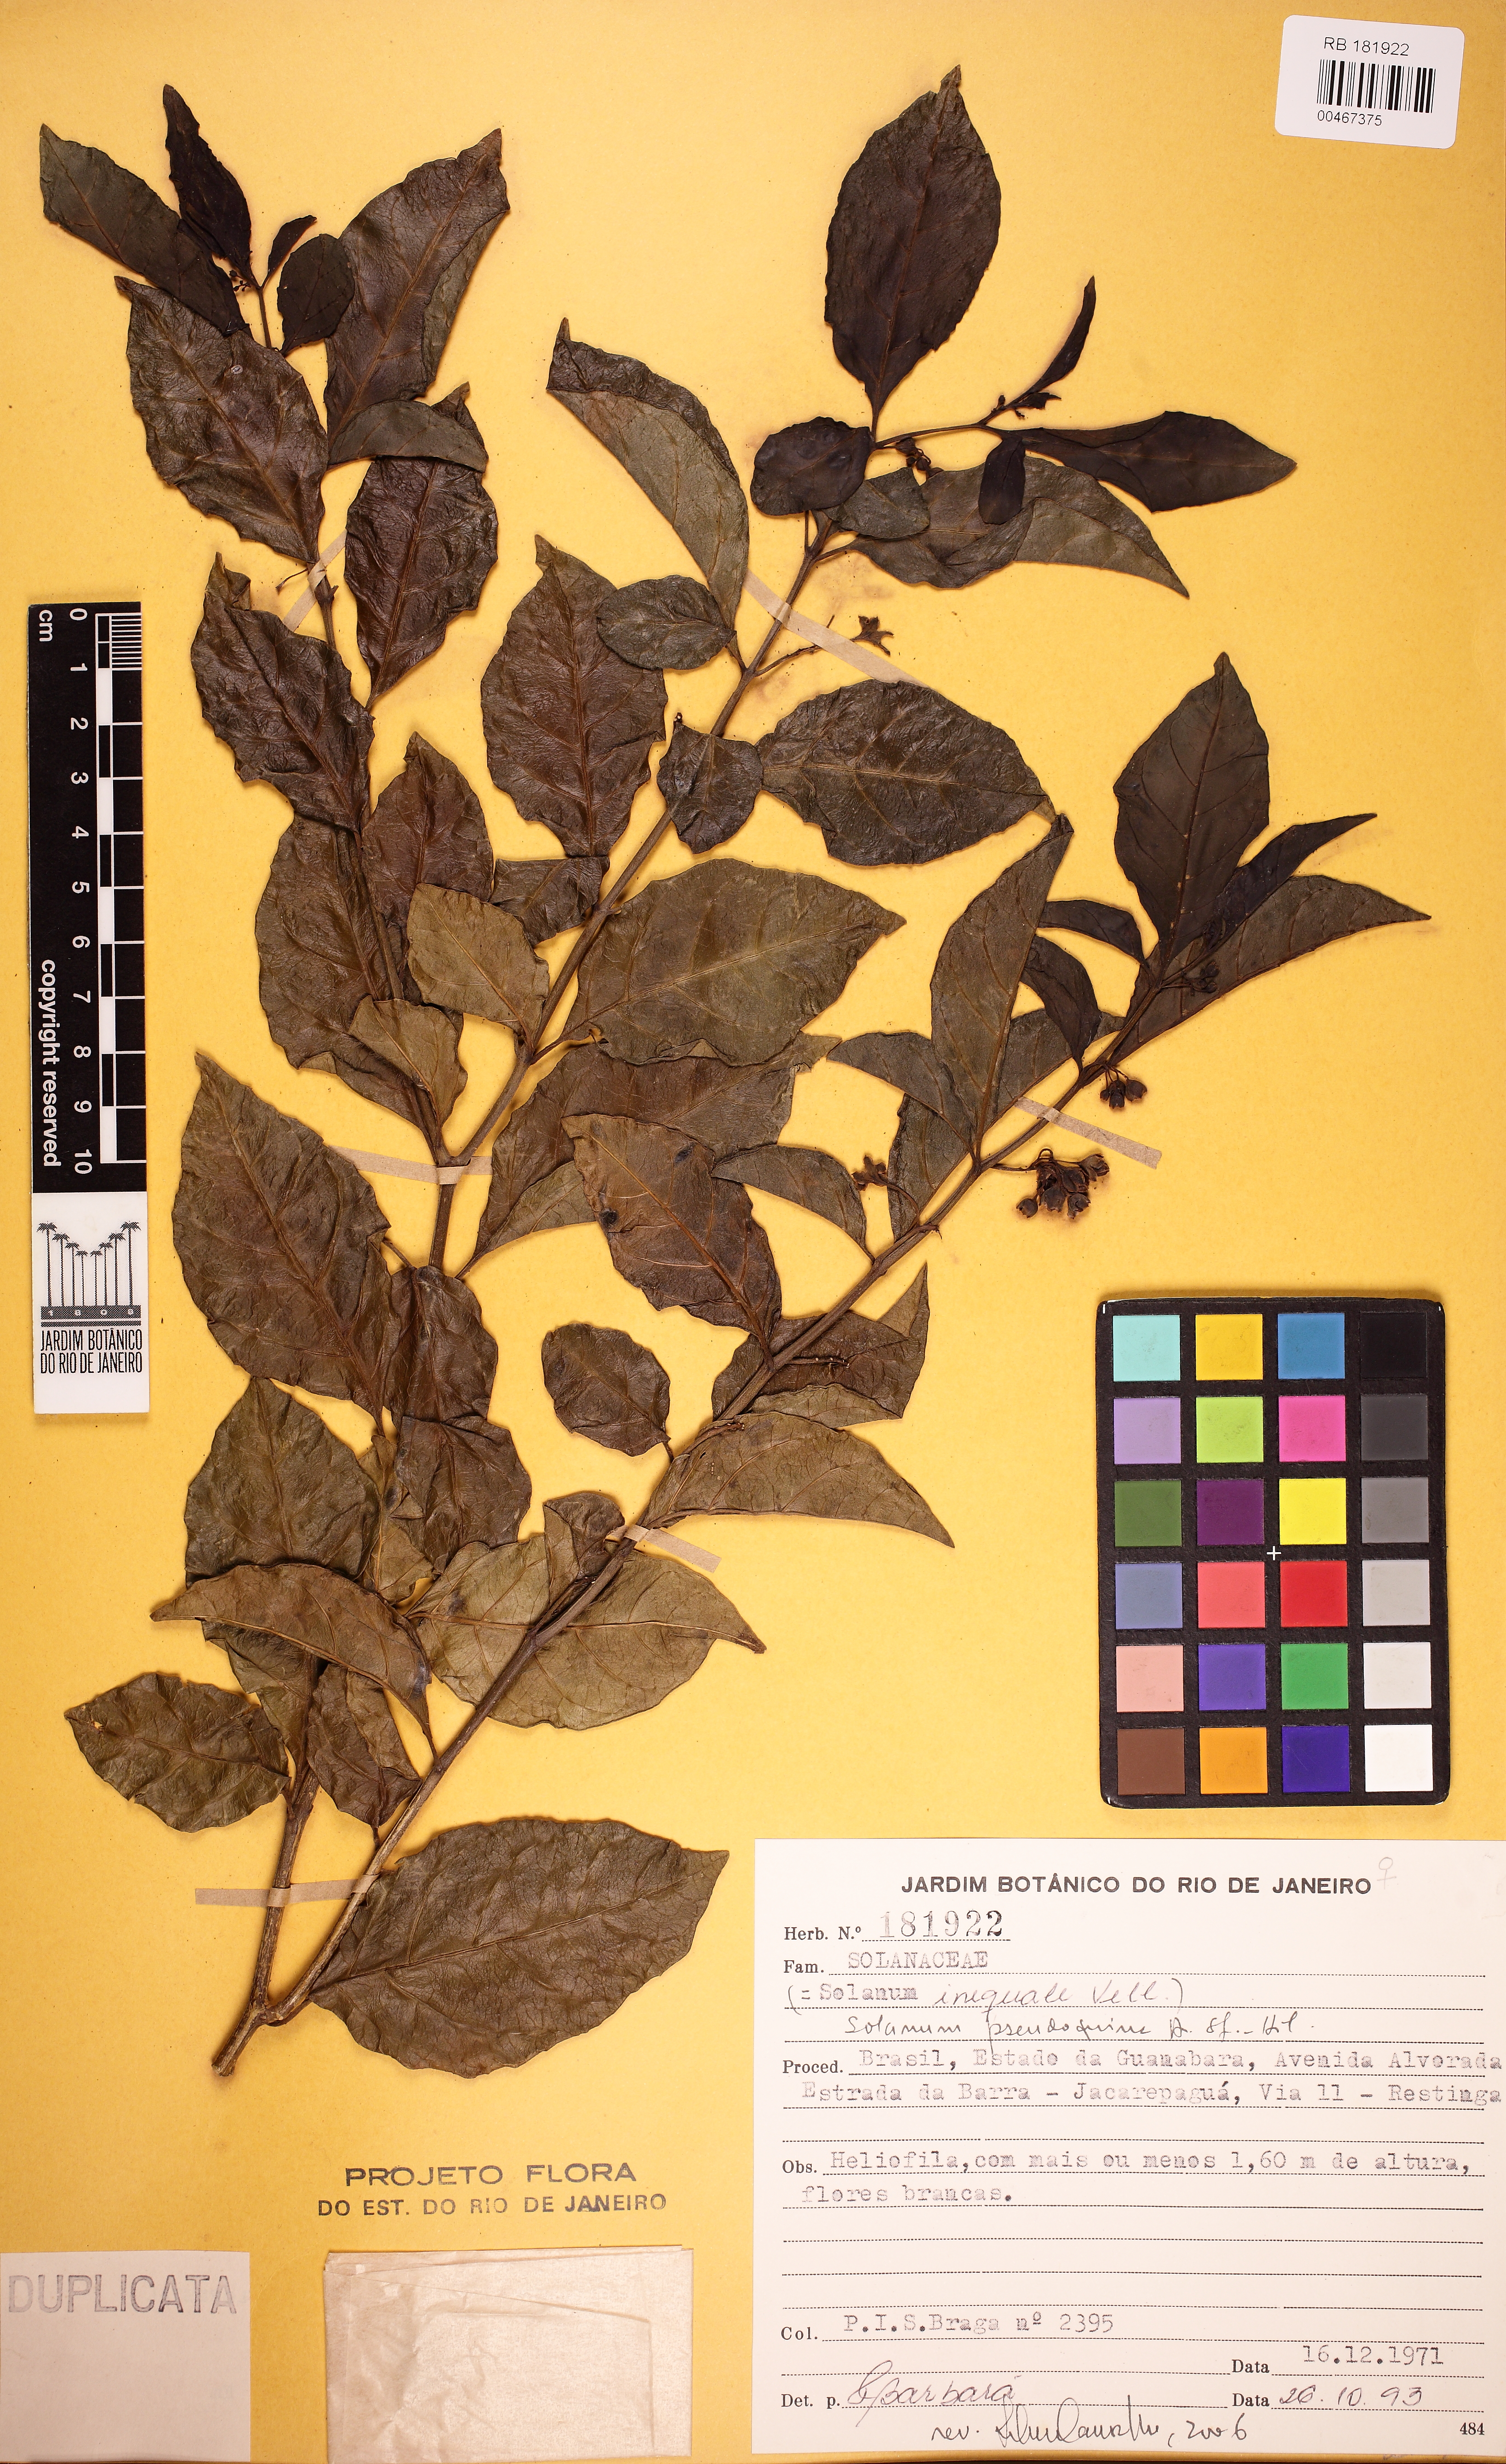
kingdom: Plantae
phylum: Tracheophyta
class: Magnoliopsida
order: Solanales
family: Solanaceae
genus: Solanum
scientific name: Solanum pseudocapsicum
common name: Jerusalem cherry
